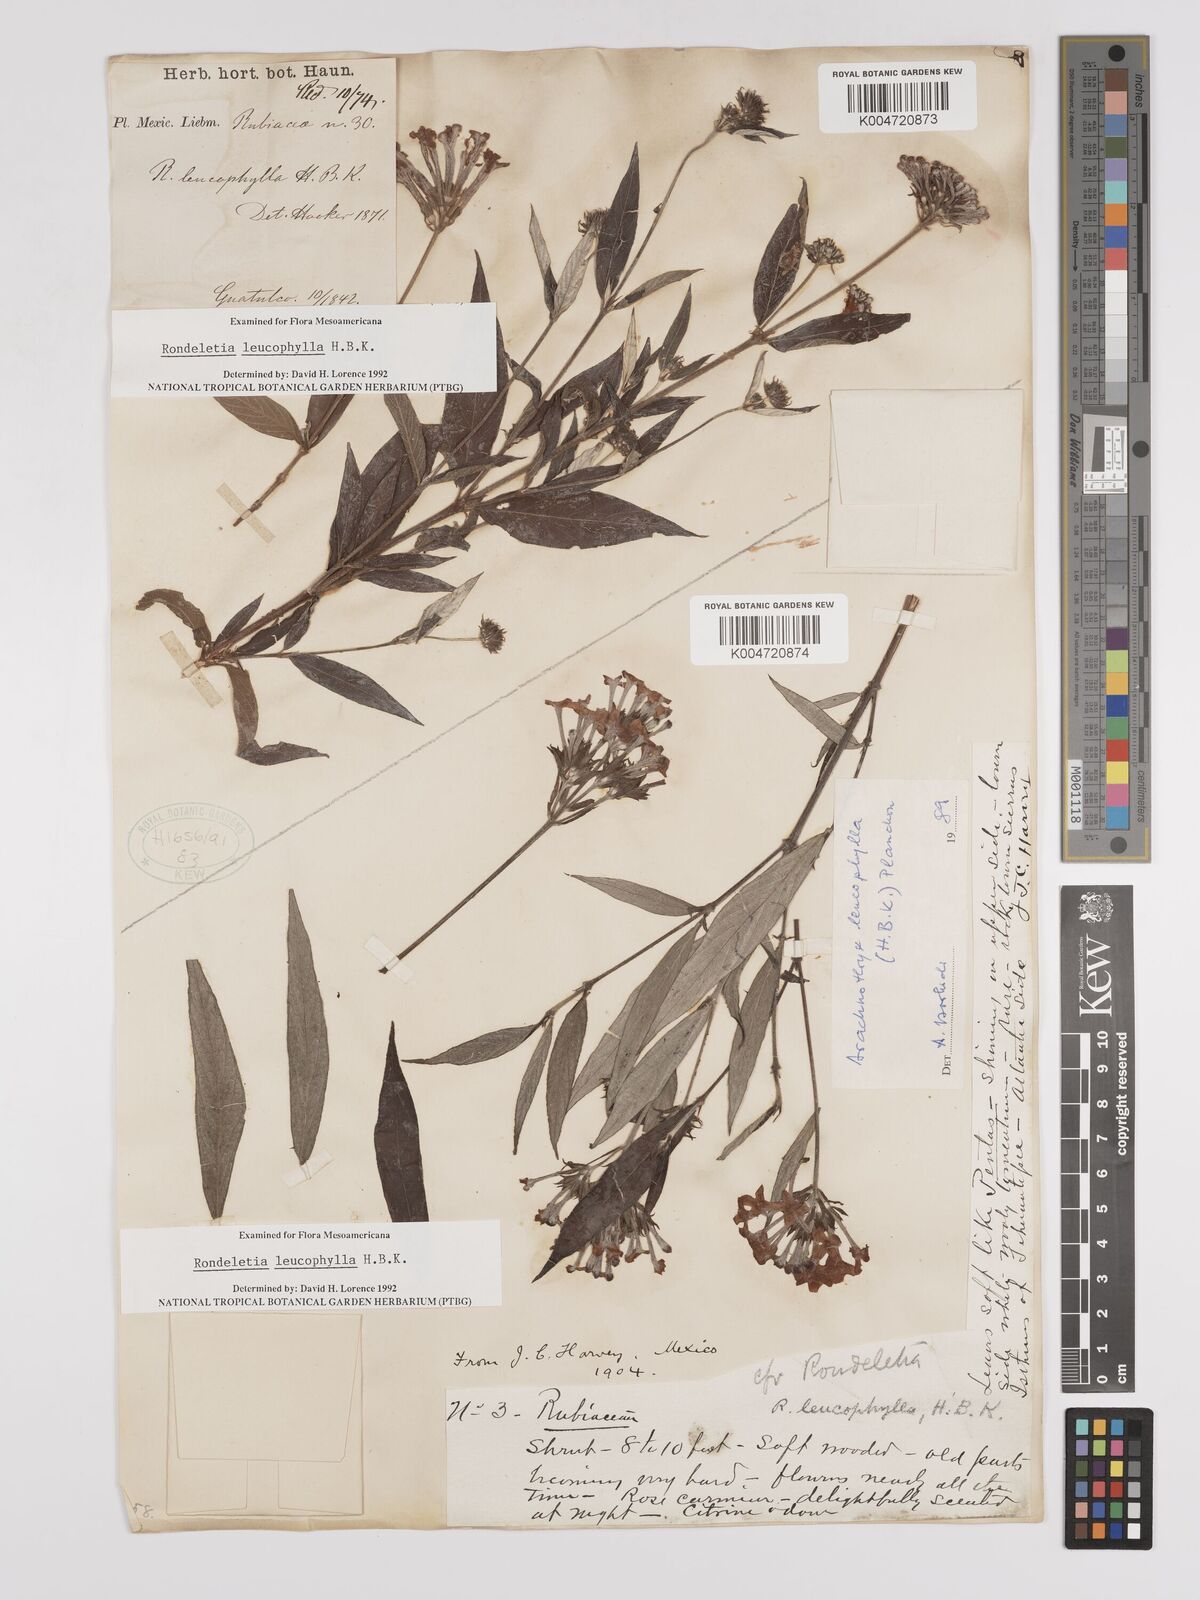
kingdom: Plantae
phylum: Tracheophyta
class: Magnoliopsida
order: Gentianales
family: Rubiaceae
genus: Arachnothryx
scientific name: Arachnothryx leucophylla
